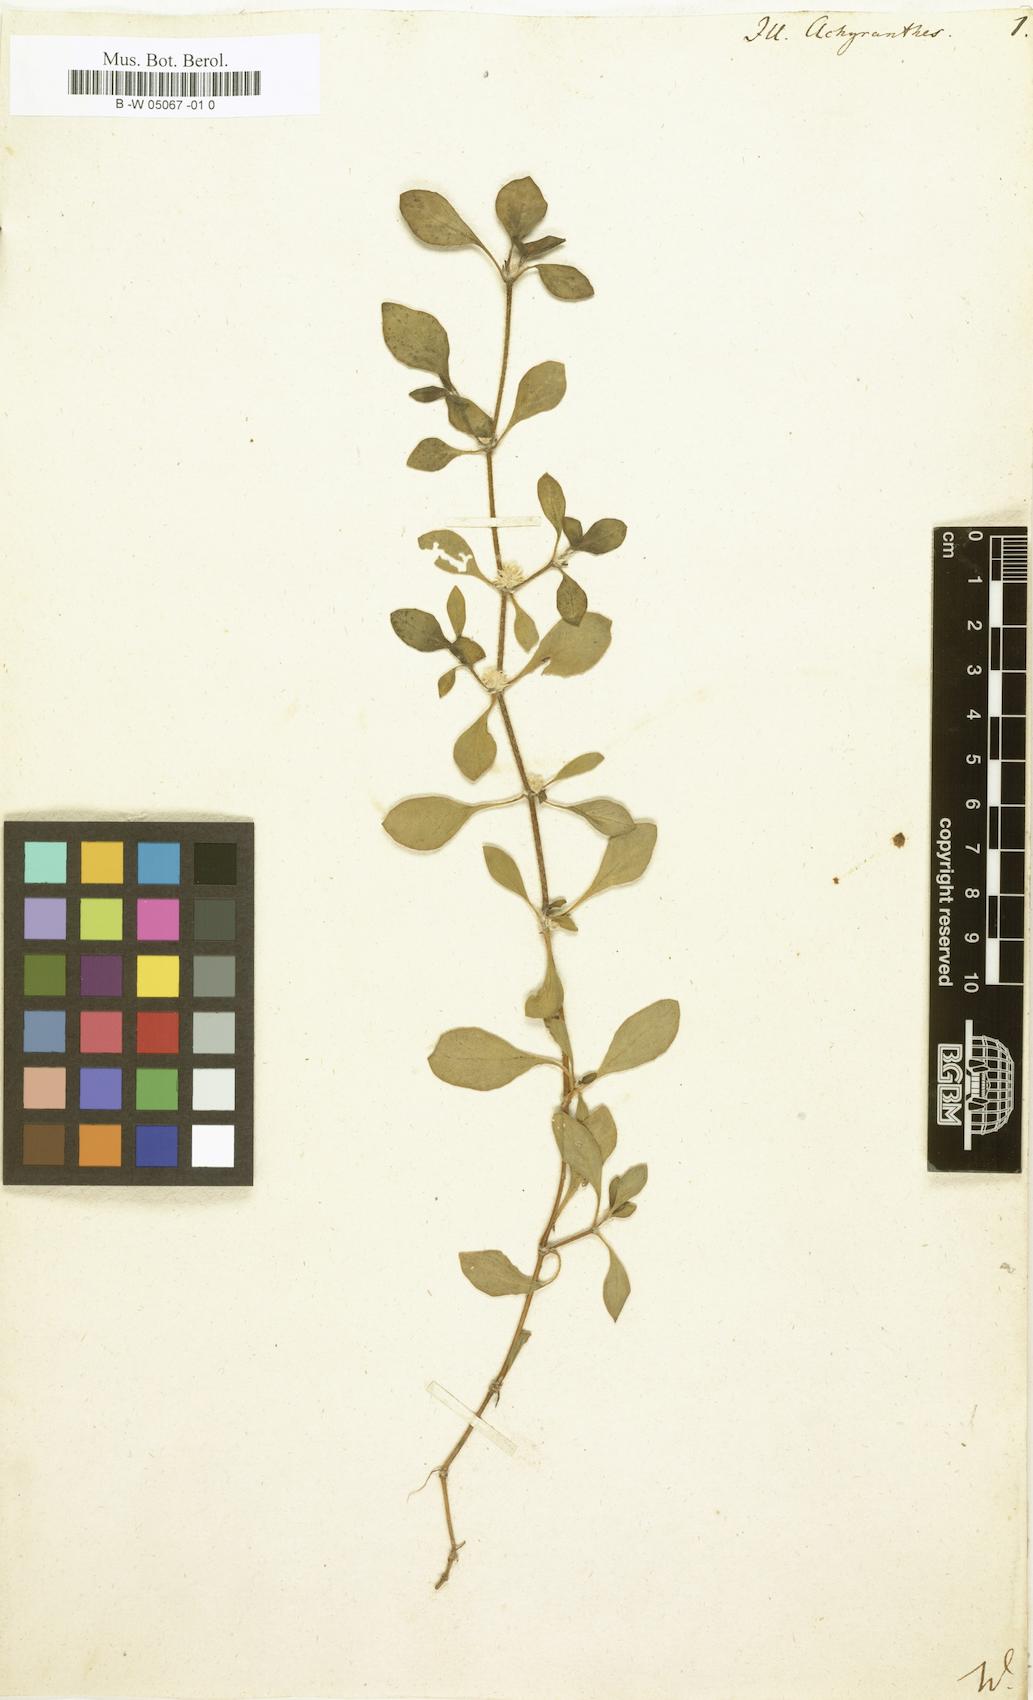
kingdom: Plantae
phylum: Tracheophyta
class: Magnoliopsida
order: Caryophyllales
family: Amaranthaceae
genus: Alternanthera
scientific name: Alternanthera pungens
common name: Khakiweed
